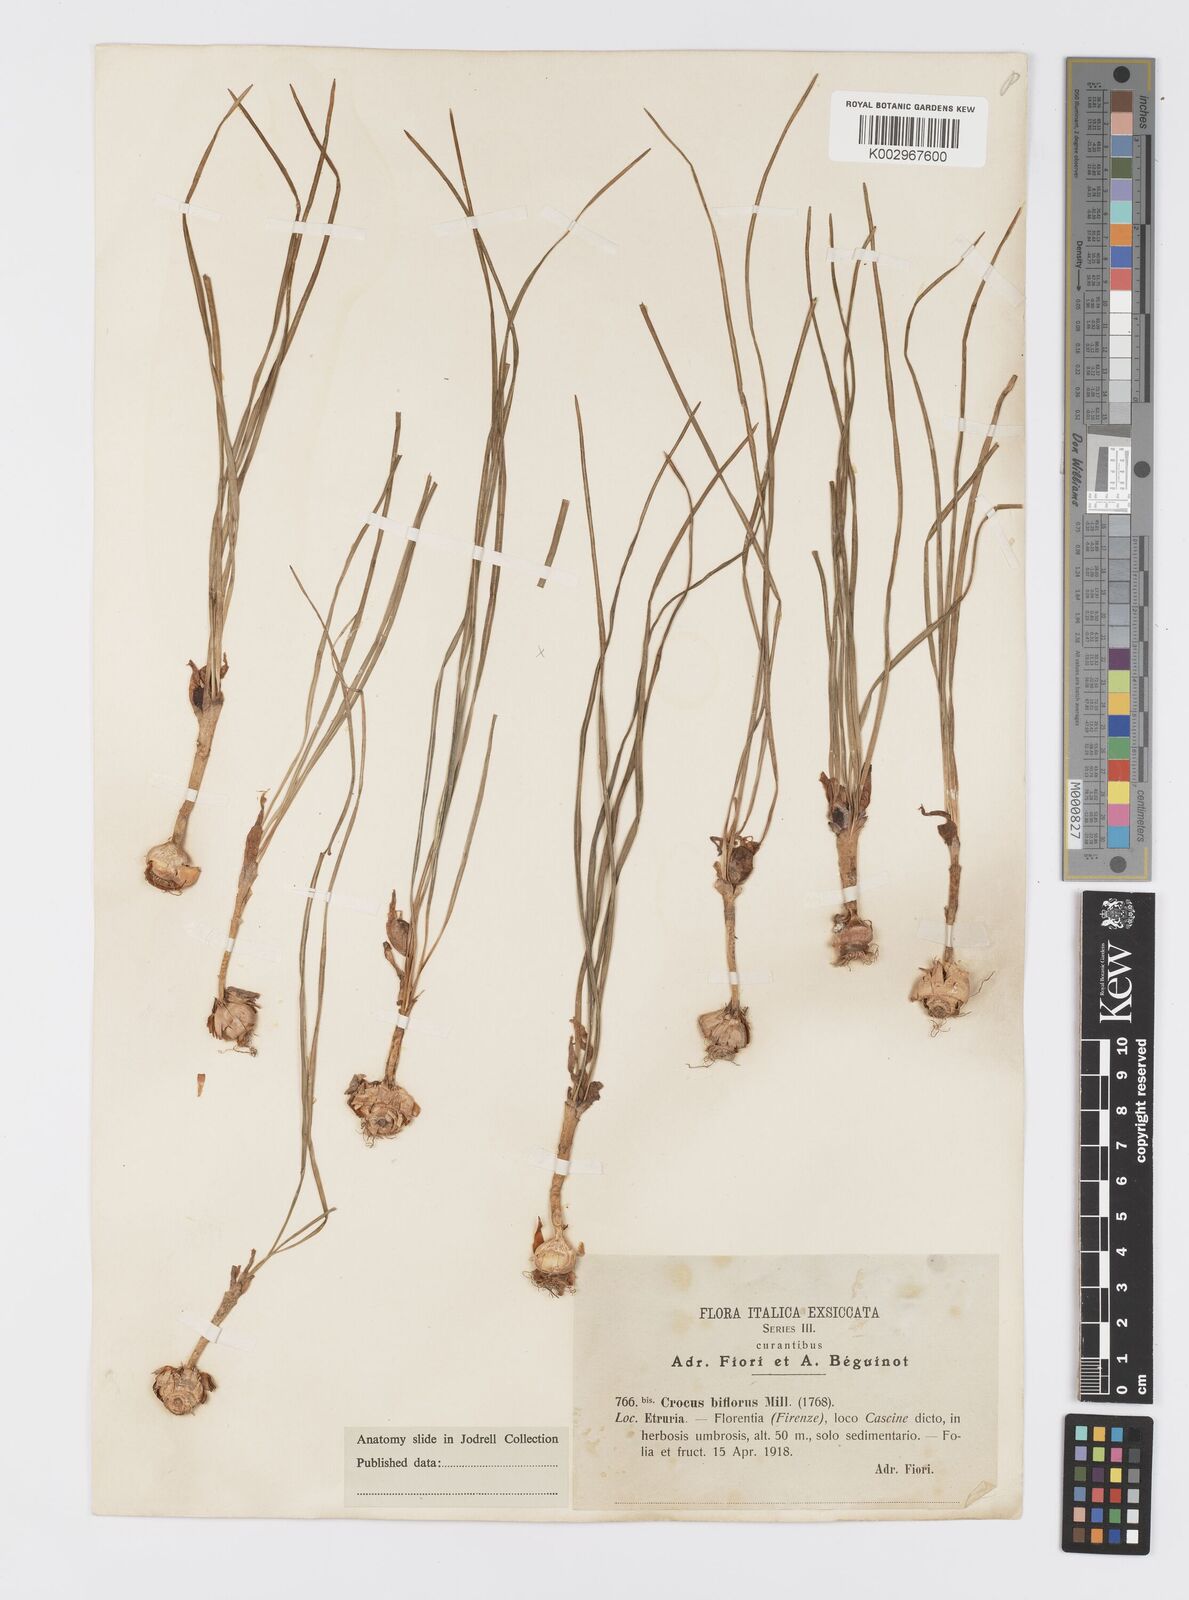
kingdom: Plantae
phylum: Tracheophyta
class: Liliopsida
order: Asparagales
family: Iridaceae
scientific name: Iridaceae
